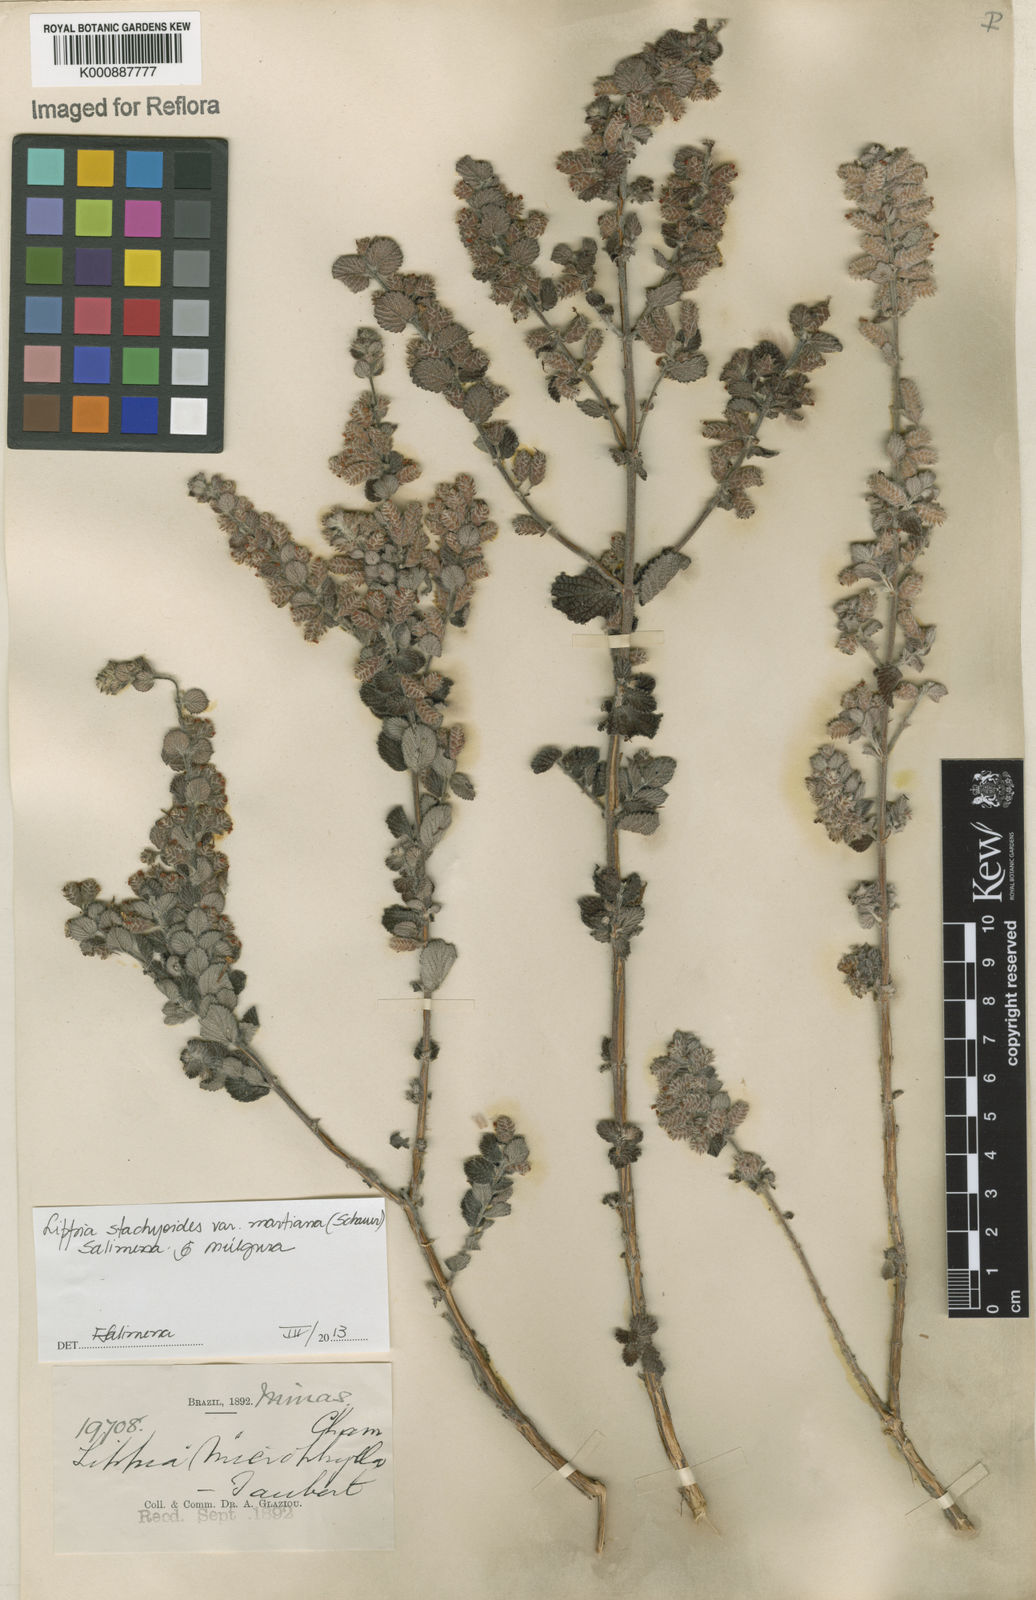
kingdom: Plantae
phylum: Tracheophyta
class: Magnoliopsida
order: Lamiales
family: Verbenaceae
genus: Lippia
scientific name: Lippia stachyoides
